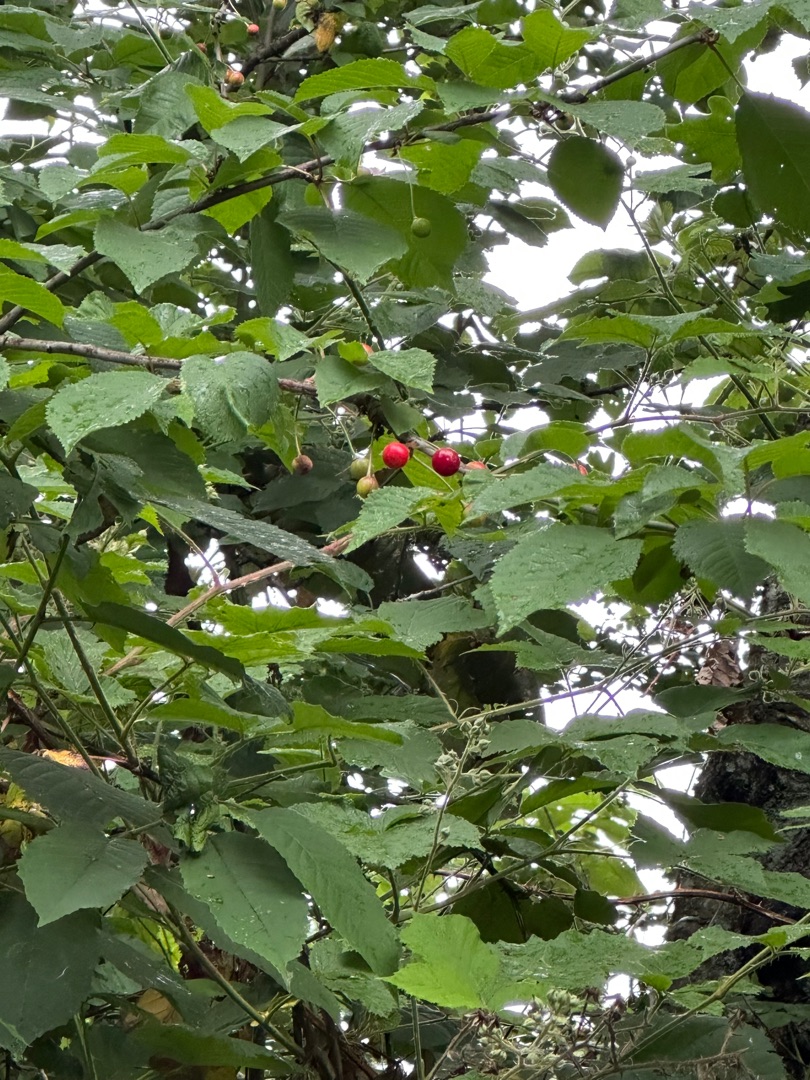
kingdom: Plantae
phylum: Tracheophyta
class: Magnoliopsida
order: Rosales
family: Rosaceae
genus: Prunus
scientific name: Prunus avium
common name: Fugle-kirsebær
